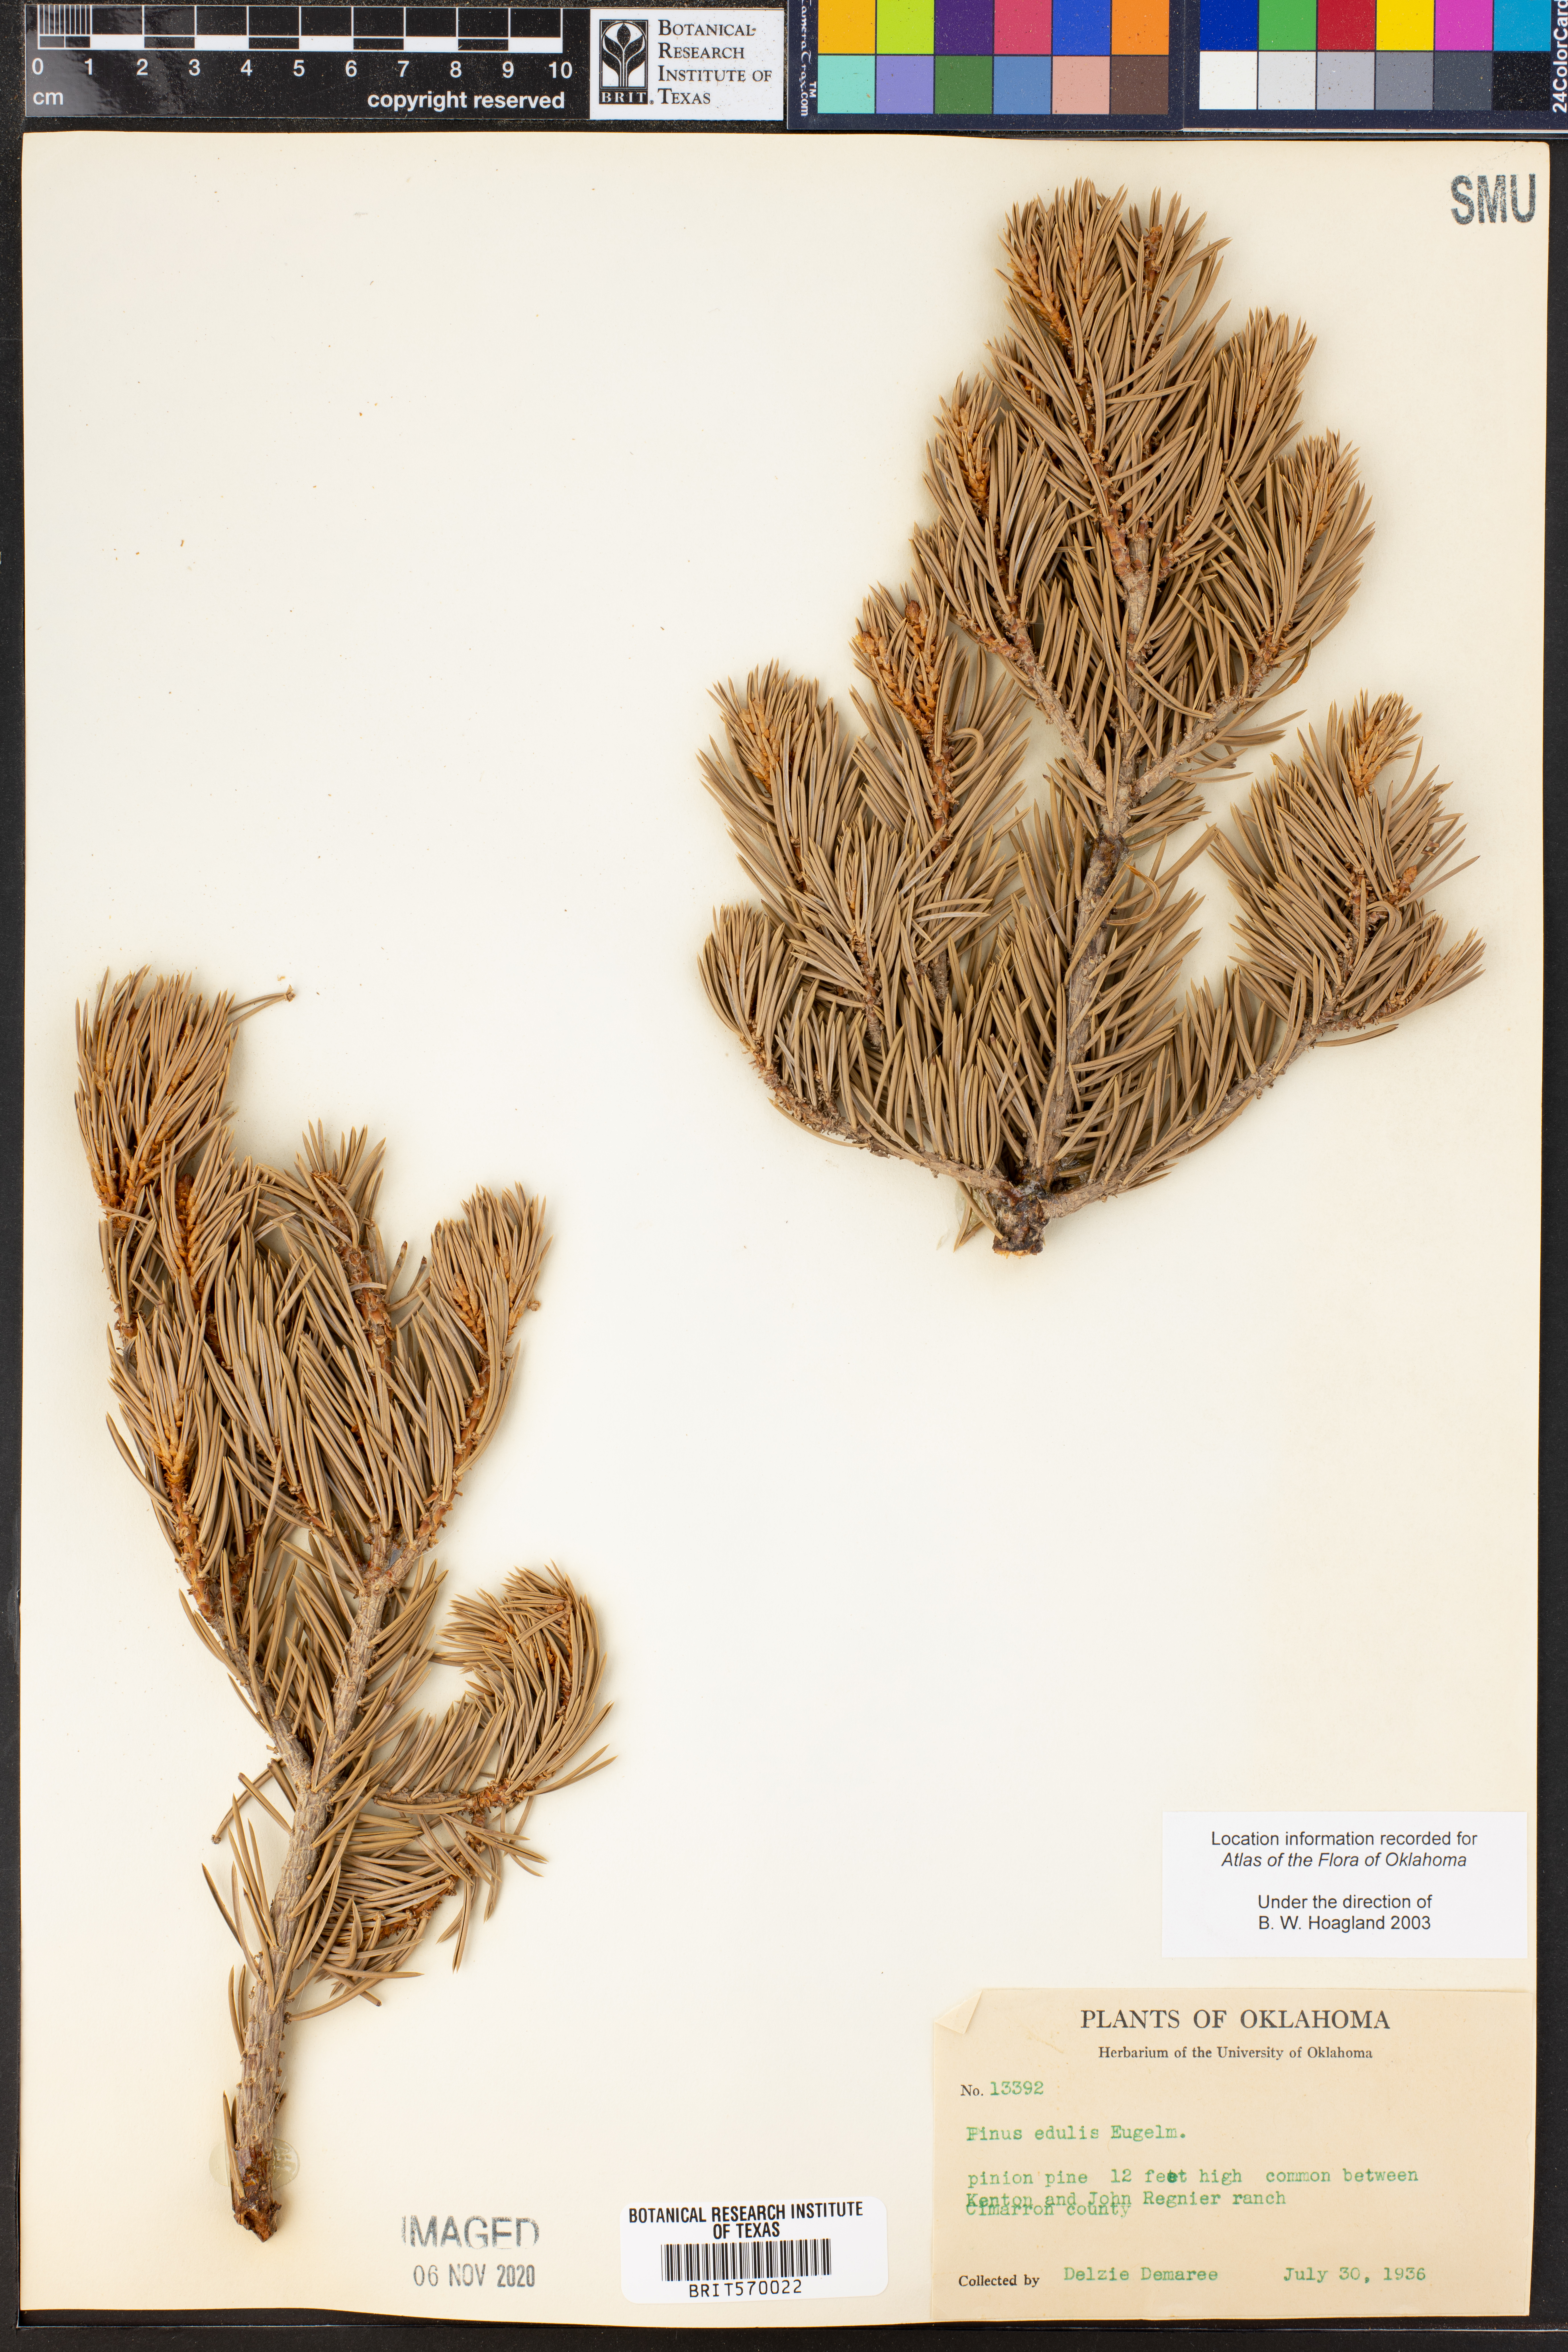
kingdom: Plantae
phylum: Tracheophyta
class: Pinopsida
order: Pinales
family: Pinaceae
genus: Pinus
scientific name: Pinus edulis
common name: Colorado pinyon
